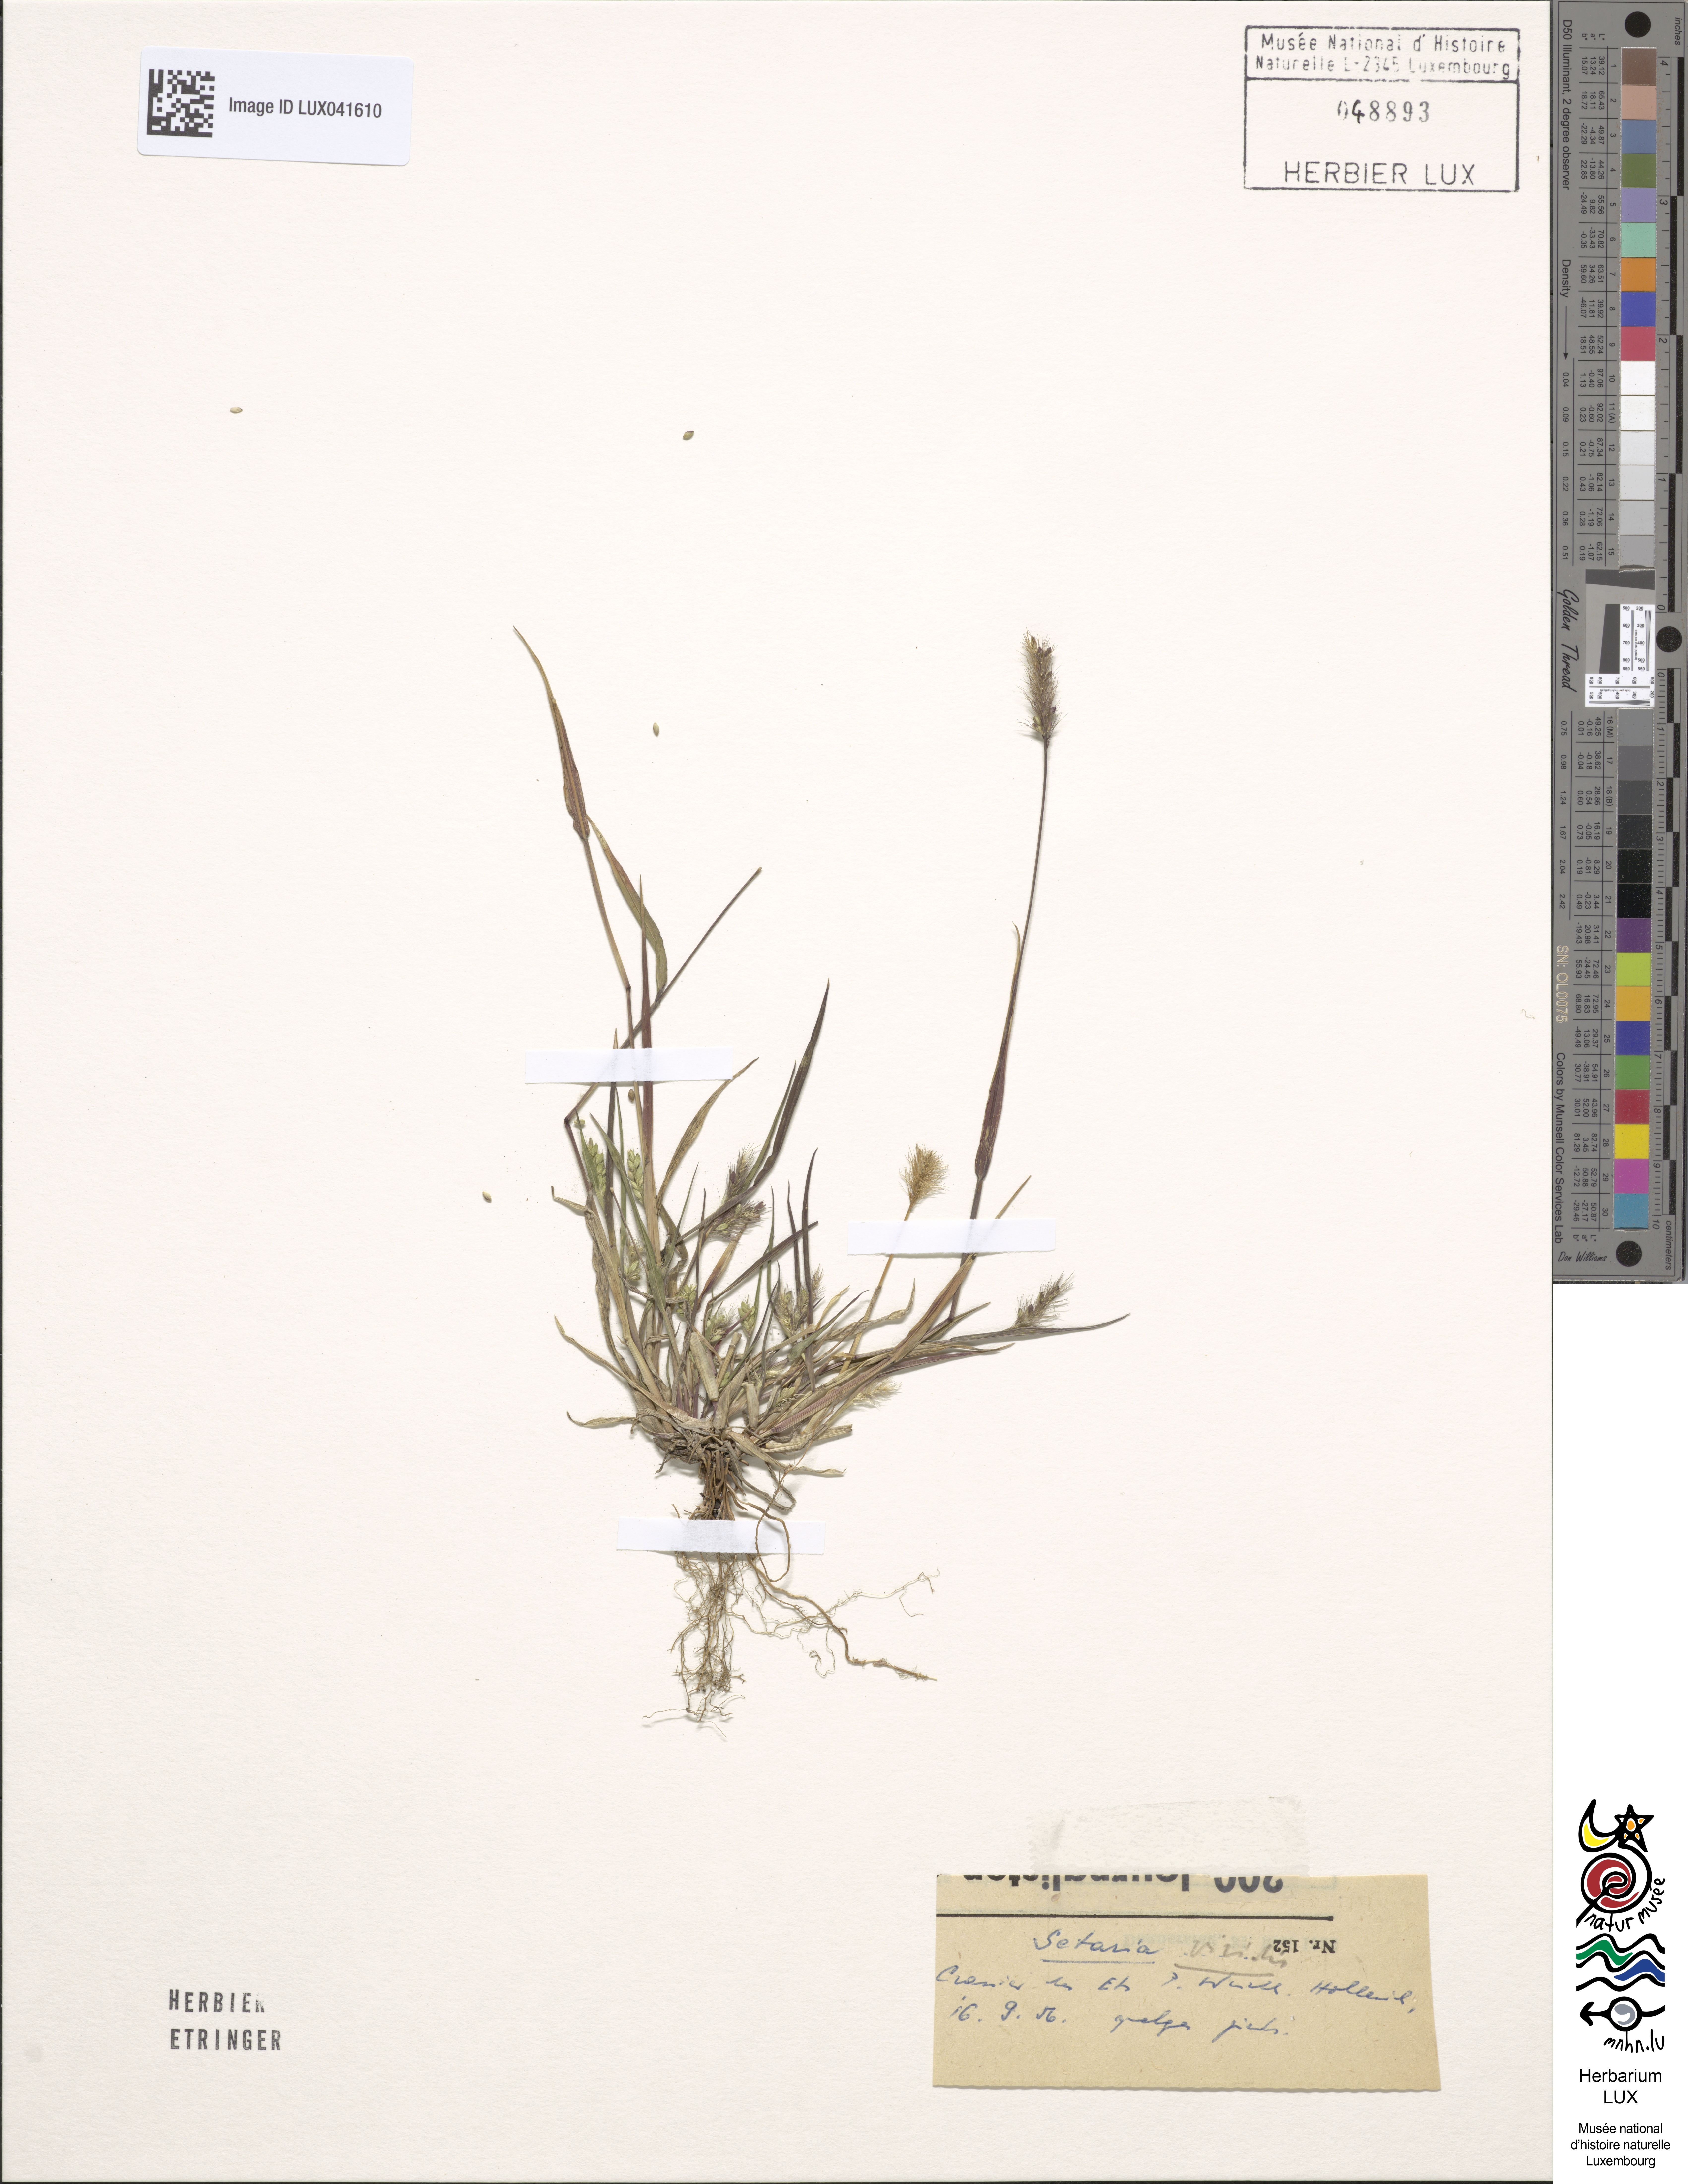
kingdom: Plantae
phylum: Tracheophyta
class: Liliopsida
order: Poales
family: Poaceae
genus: Setaria
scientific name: Setaria viridis
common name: Green bristlegrass
